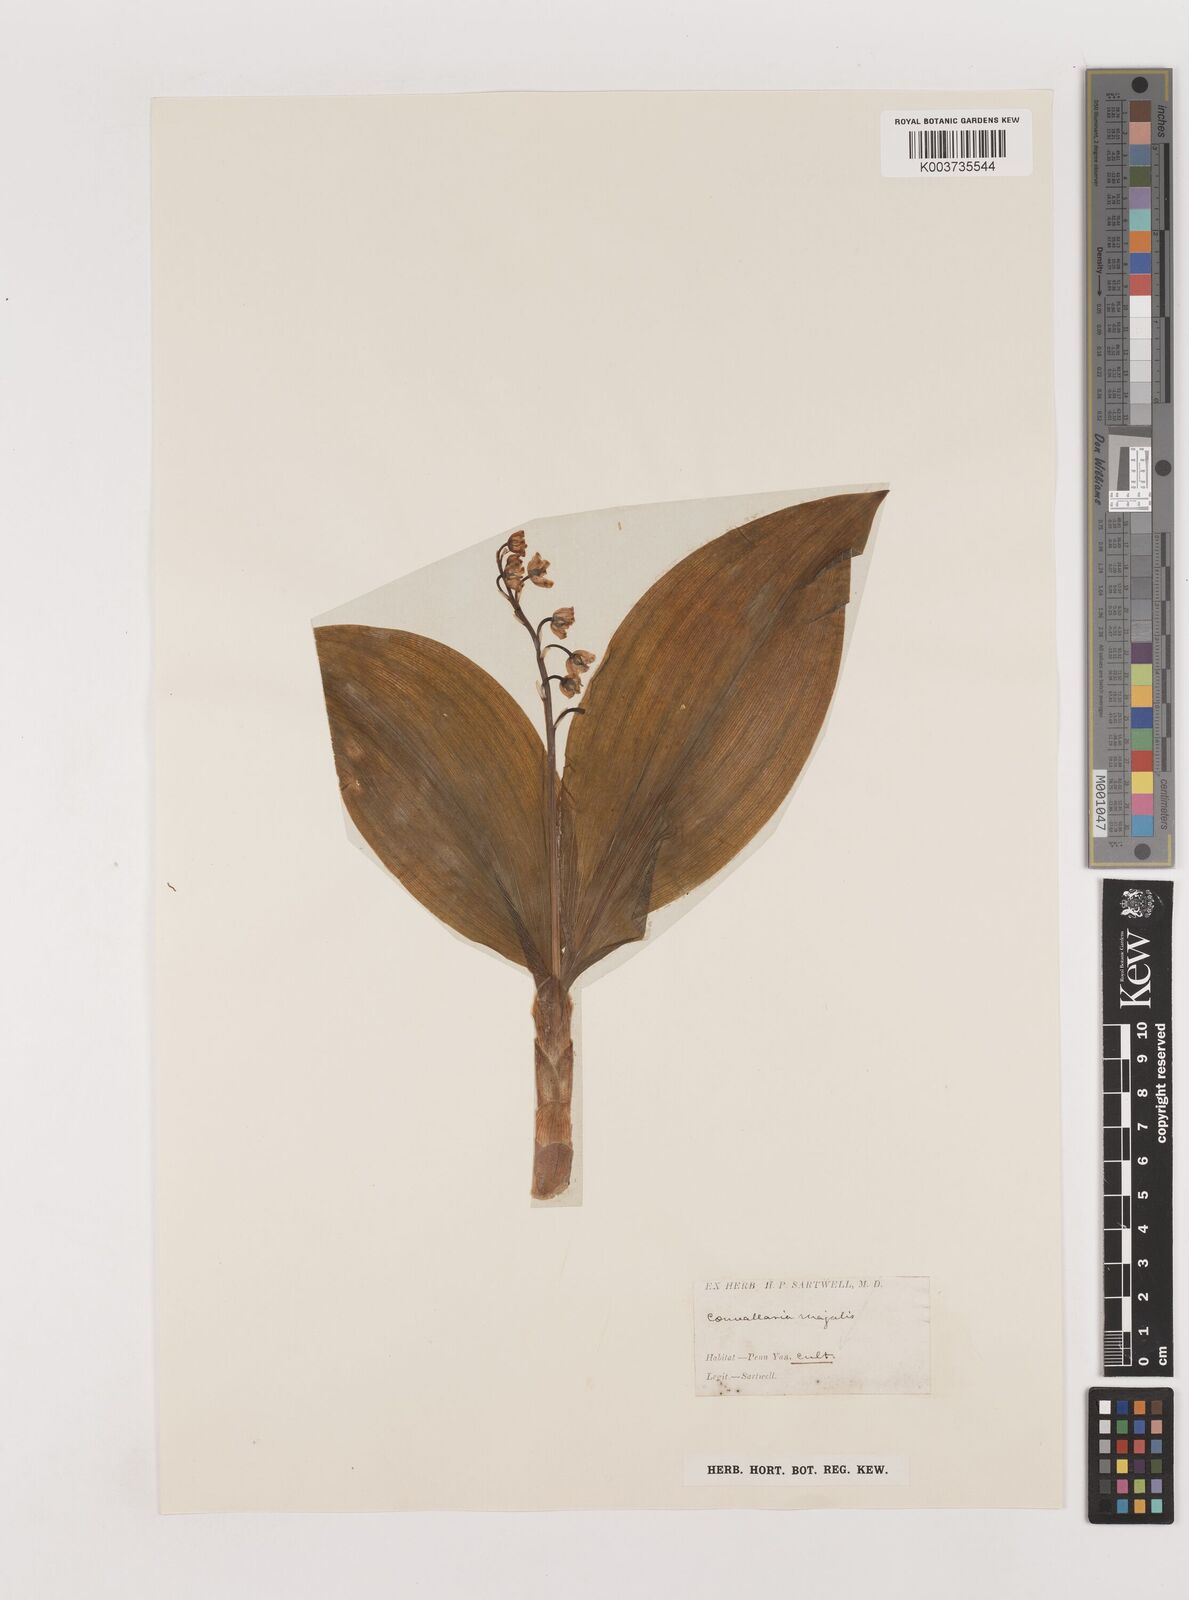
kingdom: Plantae
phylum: Tracheophyta
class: Liliopsida
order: Asparagales
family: Asparagaceae
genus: Convallaria
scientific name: Convallaria majalis
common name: Lily-of-the-valley
